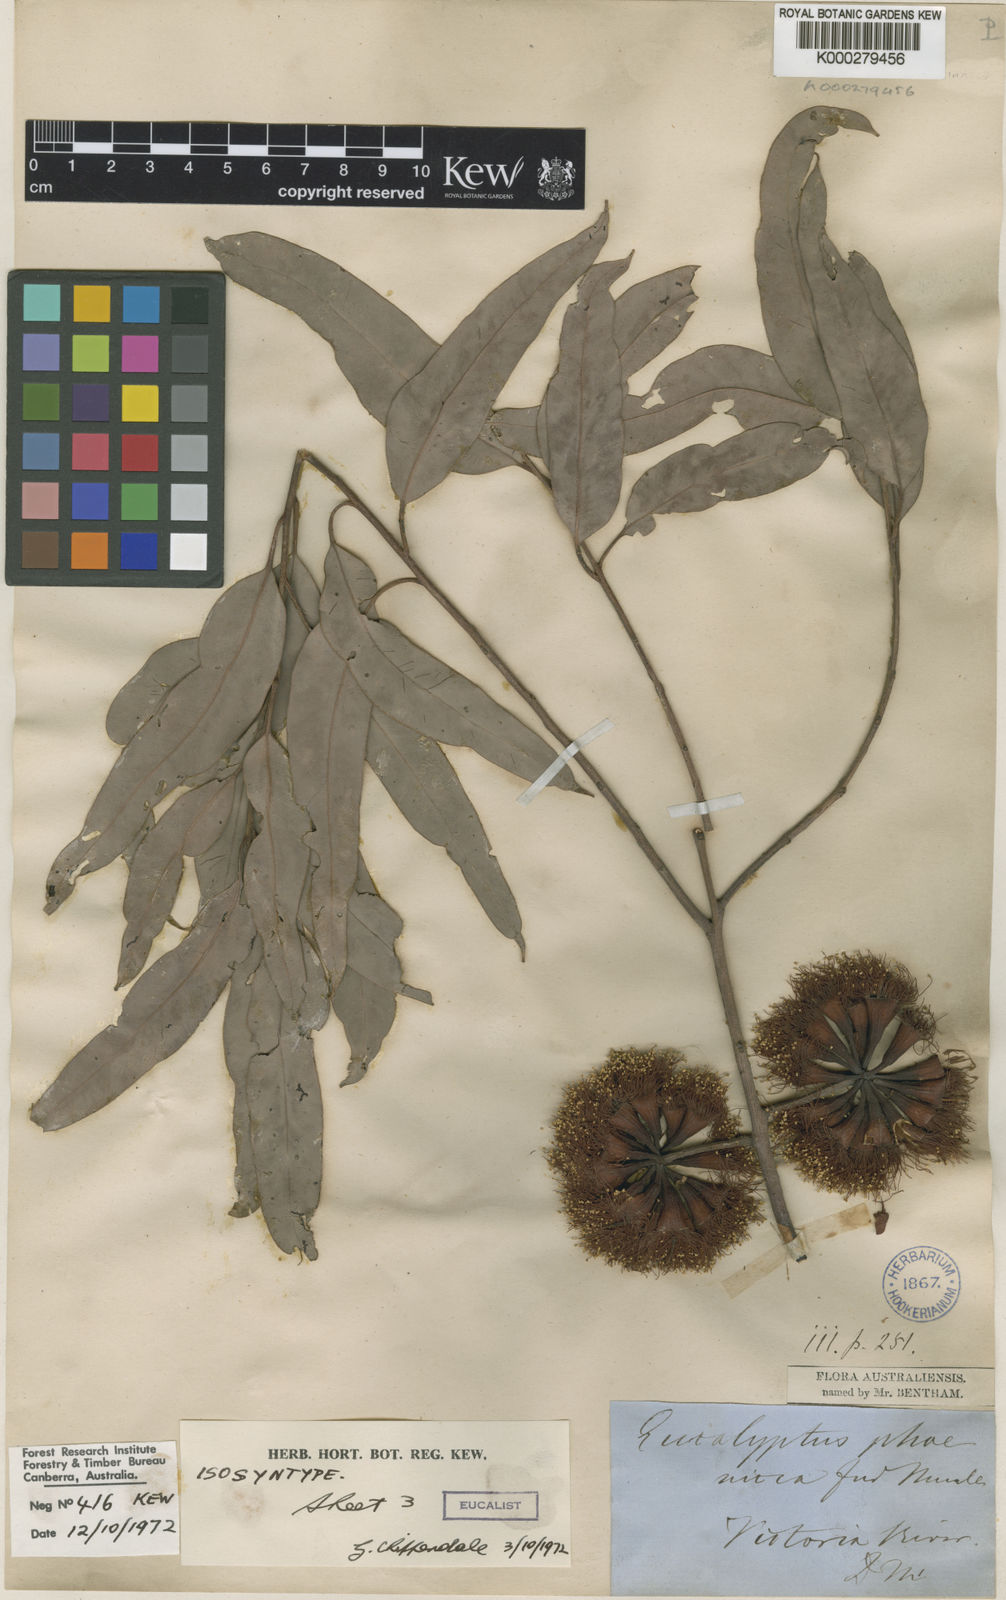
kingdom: Plantae
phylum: Tracheophyta
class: Magnoliopsida
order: Myrtales
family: Myrtaceae
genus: Eucalyptus
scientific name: Eucalyptus phoenicea
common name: Gnaingar
